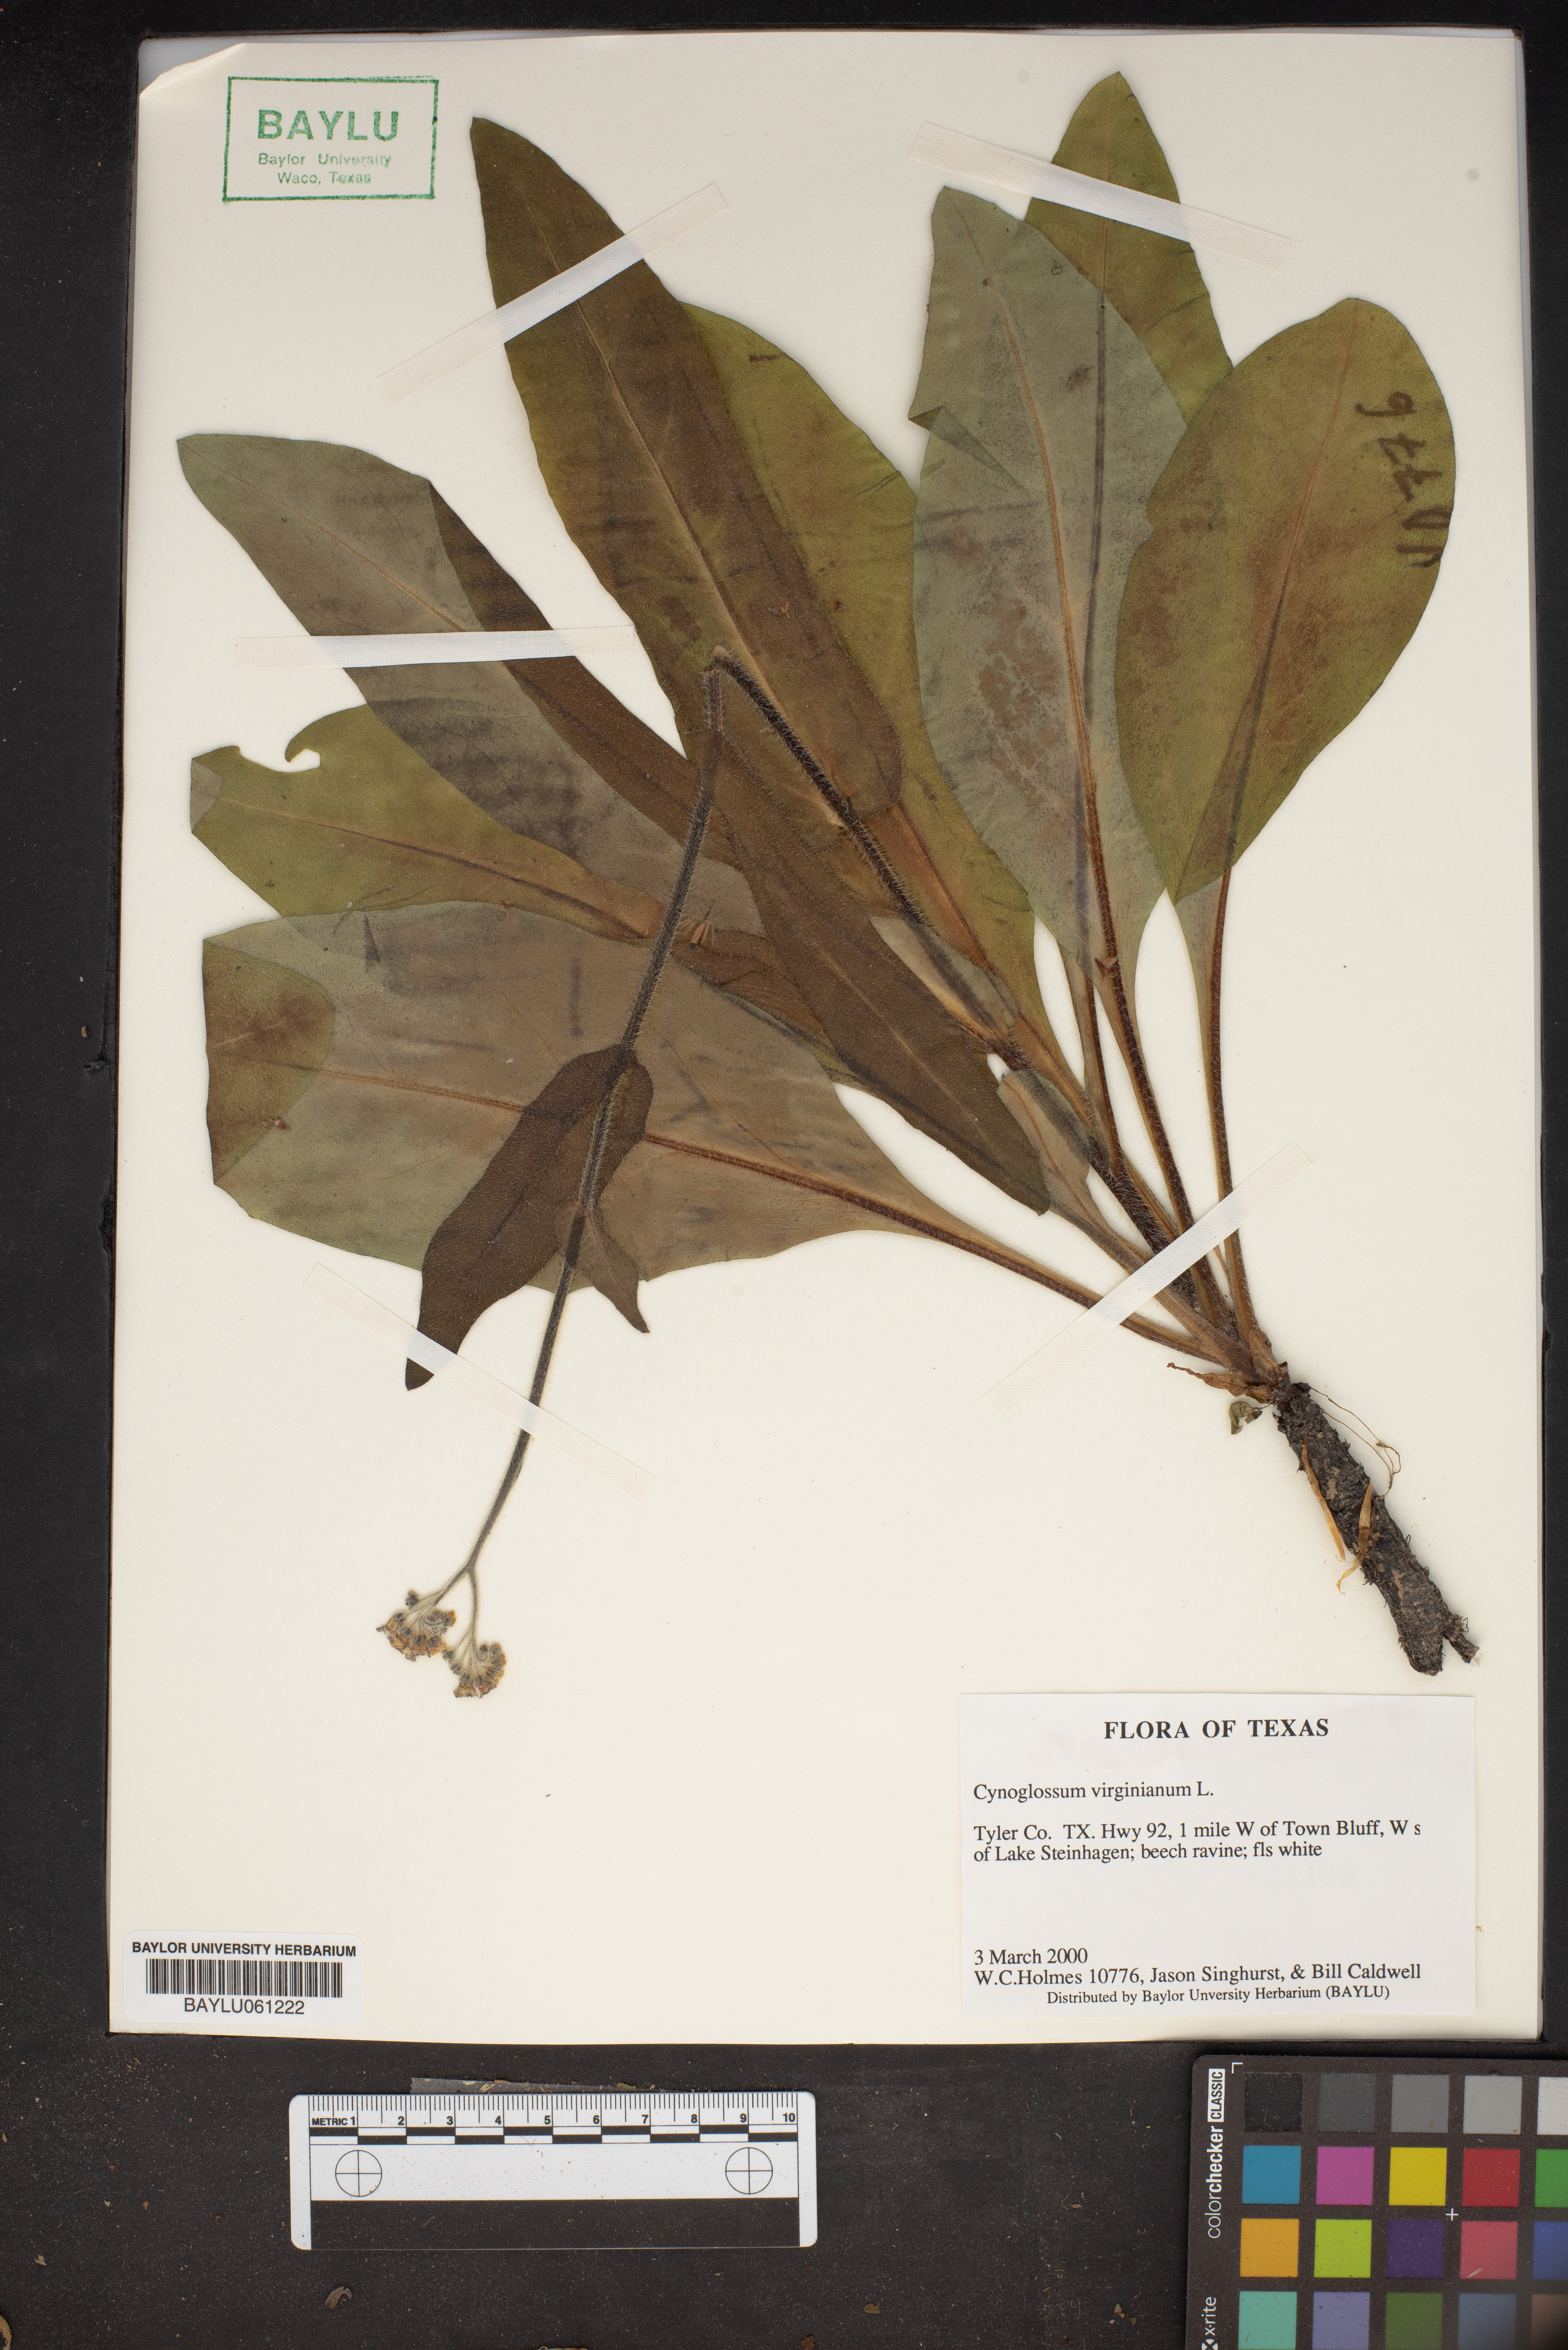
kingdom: Plantae
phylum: Tracheophyta
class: Magnoliopsida
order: Boraginales
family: Boraginaceae
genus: Andersonglossum
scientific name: Andersonglossum virginianum
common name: Wild comfrey
